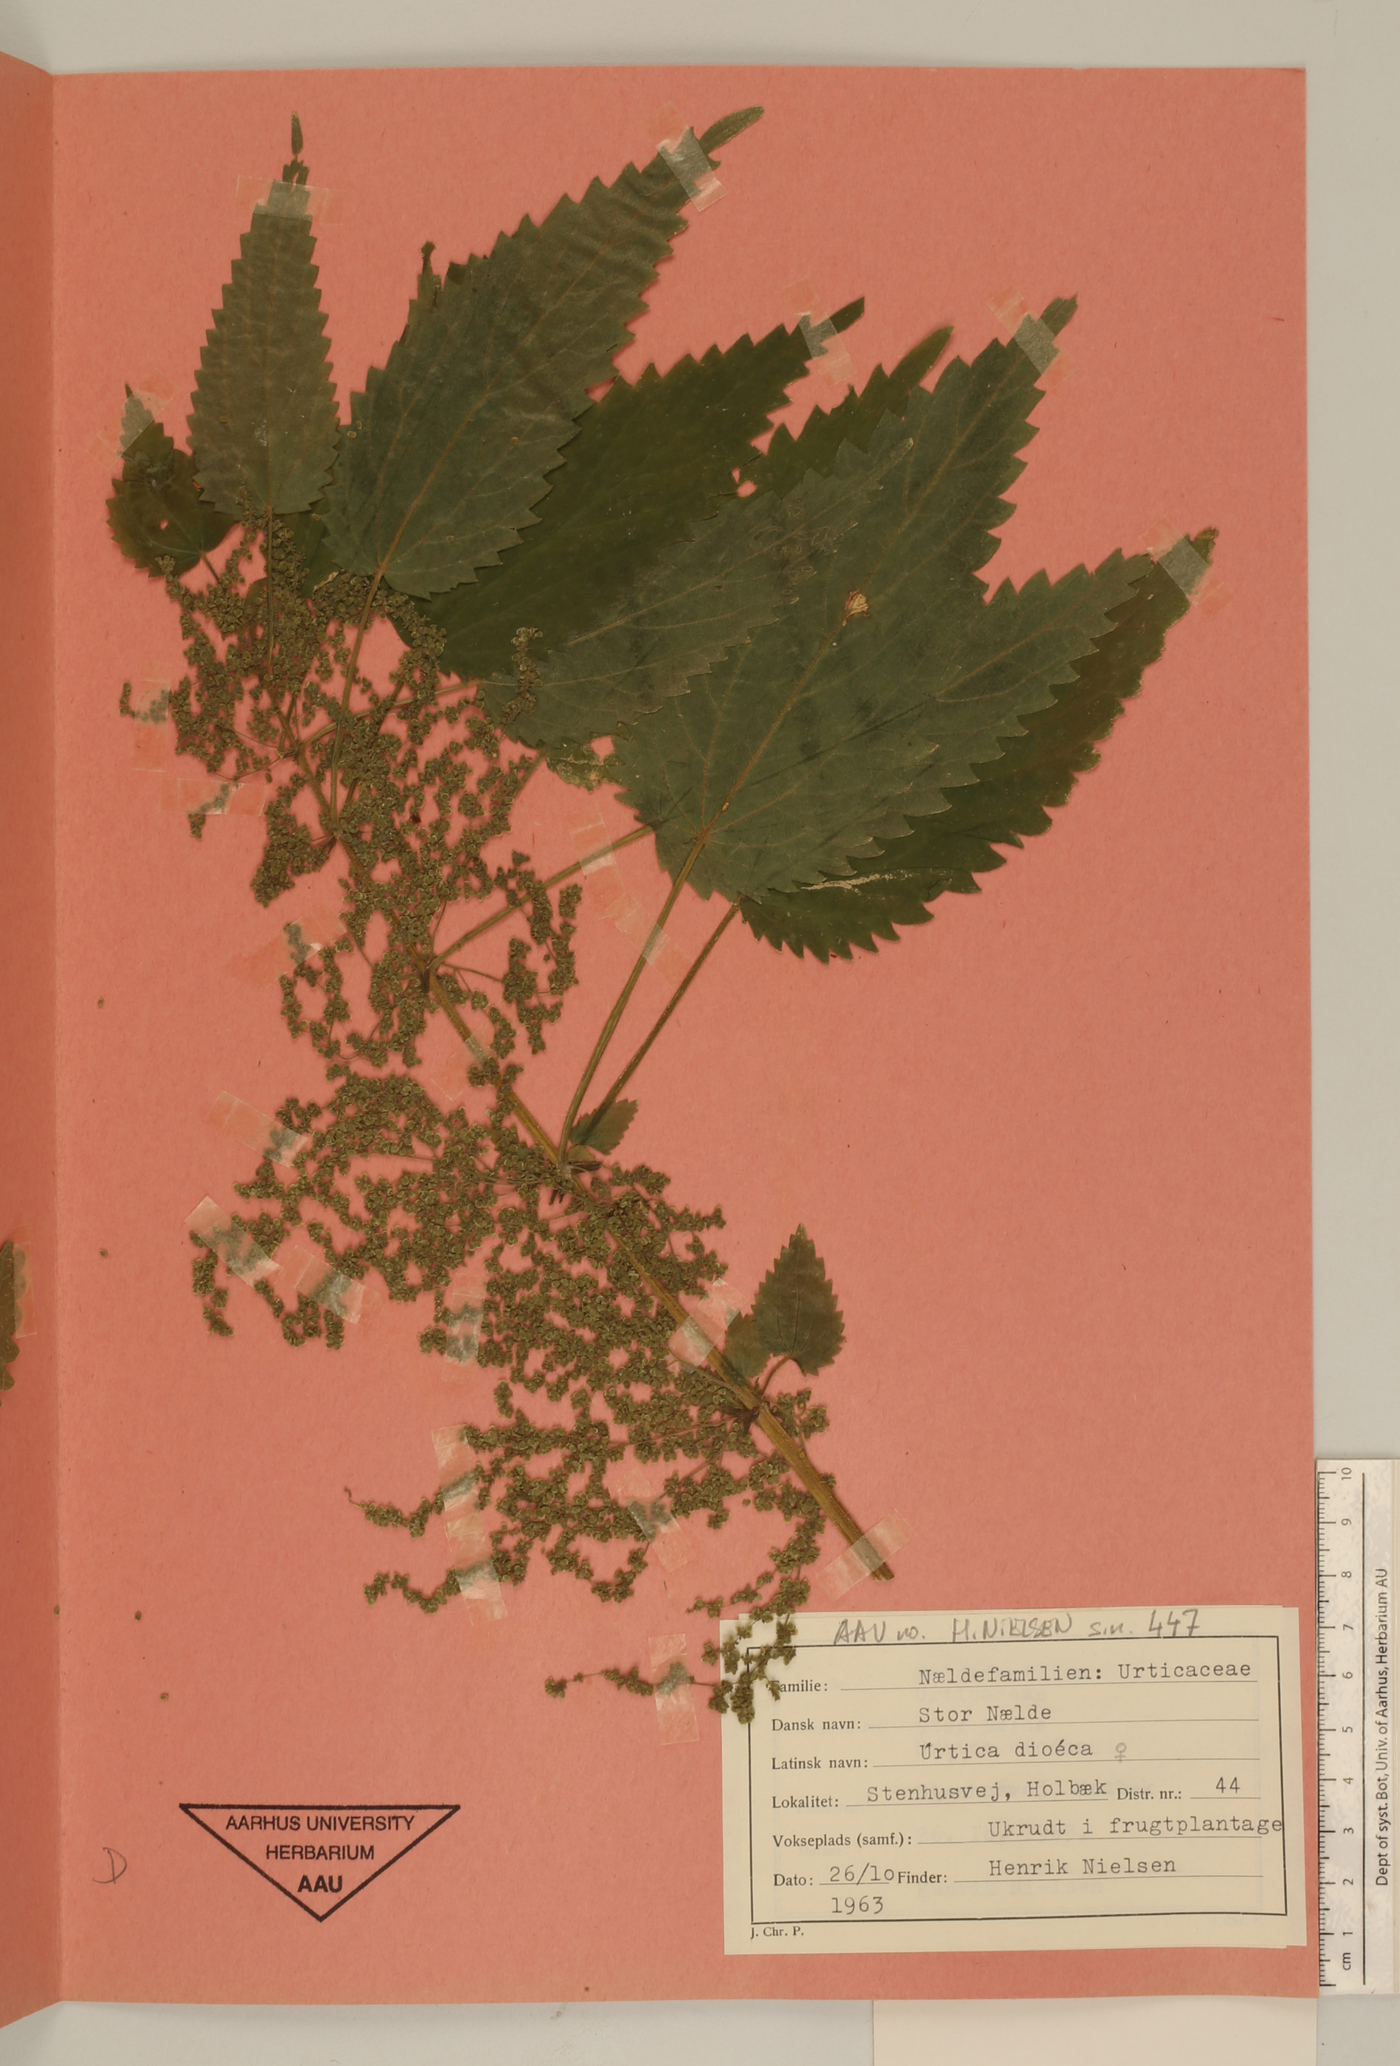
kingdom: Plantae
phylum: Tracheophyta
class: Magnoliopsida
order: Rosales
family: Urticaceae
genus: Urtica
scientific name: Urtica dioica
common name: Common nettle
